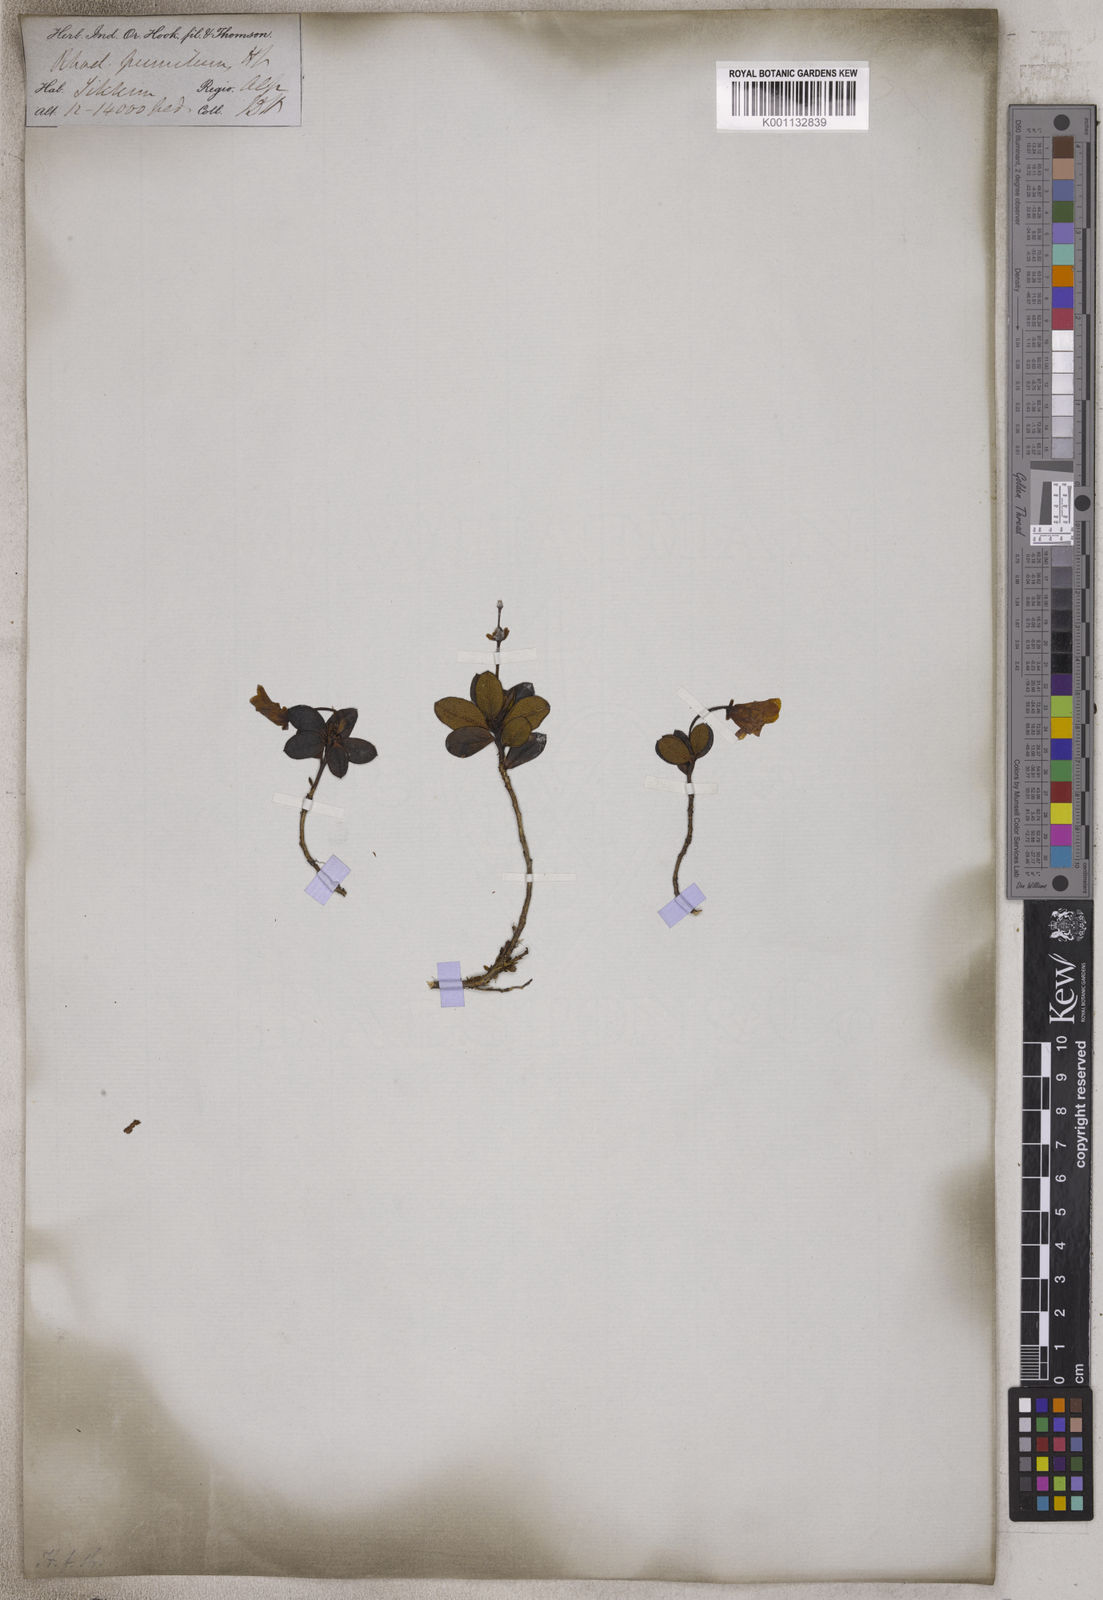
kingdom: Plantae
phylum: Tracheophyta
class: Magnoliopsida
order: Ericales
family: Ericaceae
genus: Rhododendron
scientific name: Rhododendron pumilum
